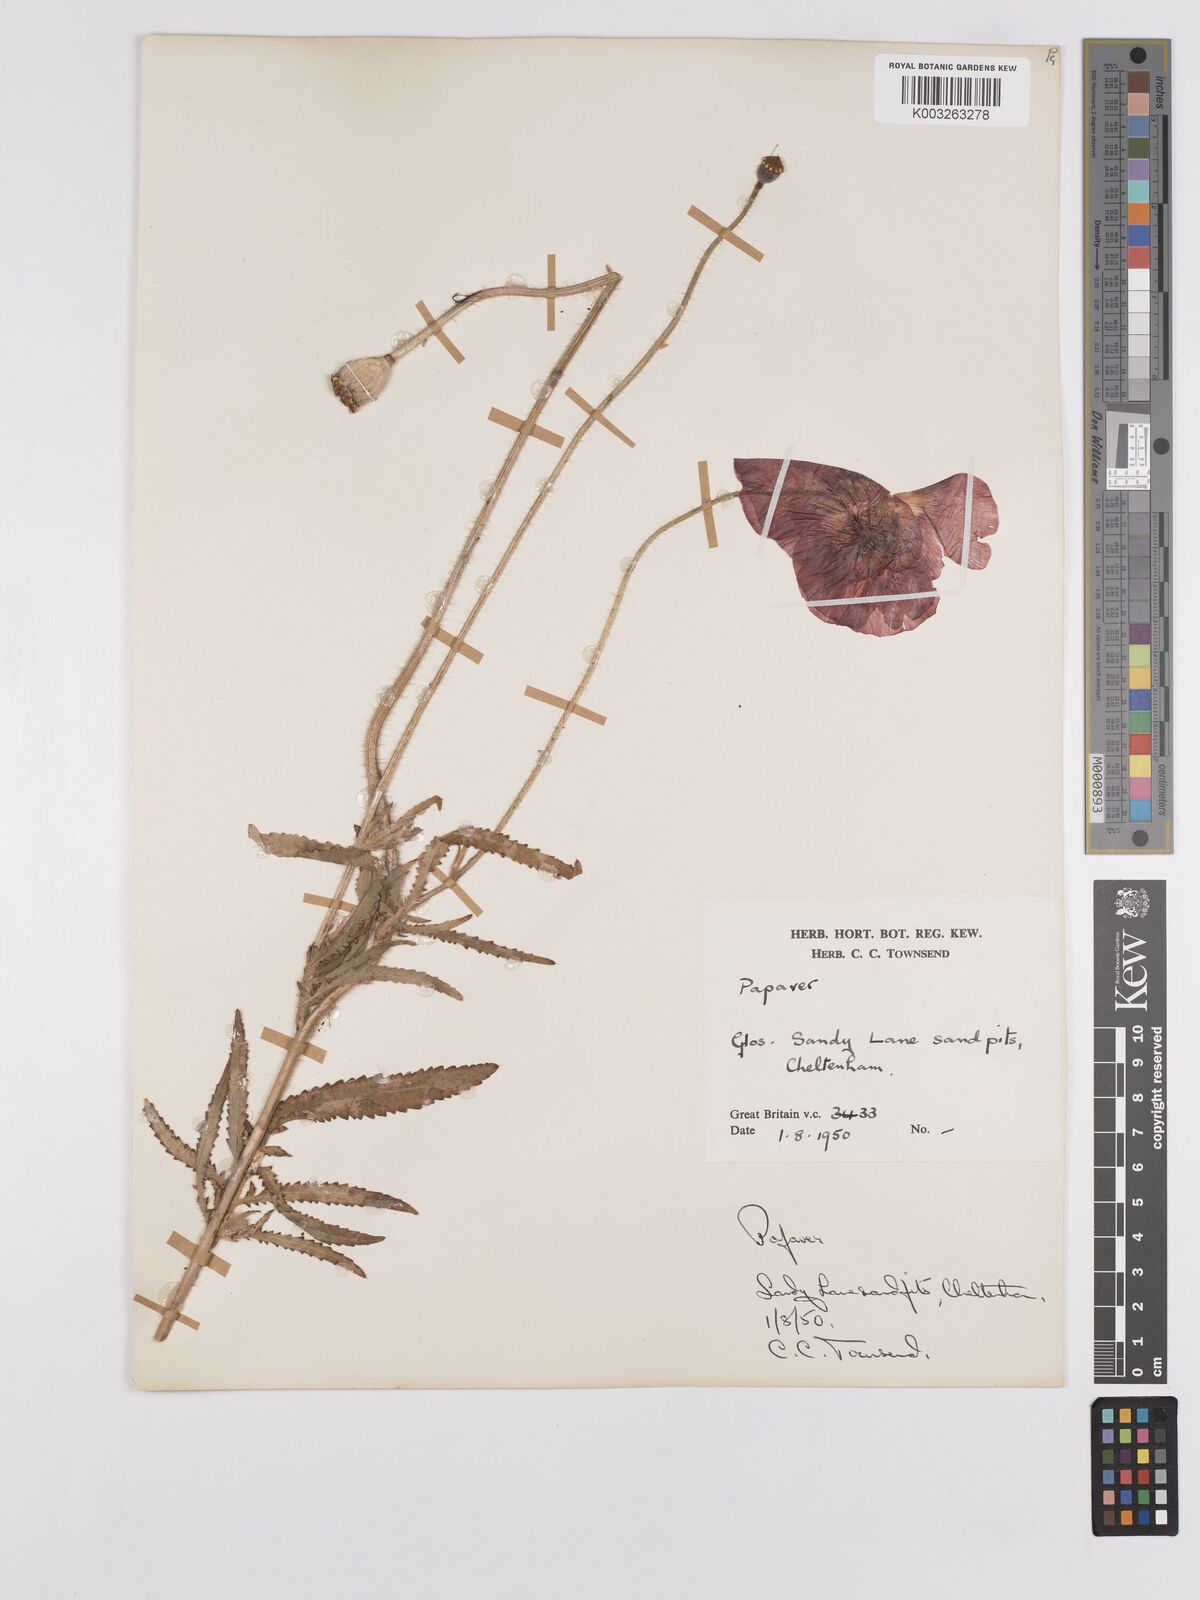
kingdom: Plantae
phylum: Tracheophyta
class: Magnoliopsida
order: Ranunculales
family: Papaveraceae
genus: Papaver
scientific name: Papaver
